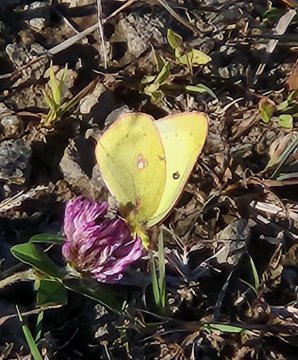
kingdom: Animalia
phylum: Arthropoda
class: Insecta
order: Lepidoptera
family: Pieridae
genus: Colias
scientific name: Colias philodice
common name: Clouded Sulphur
